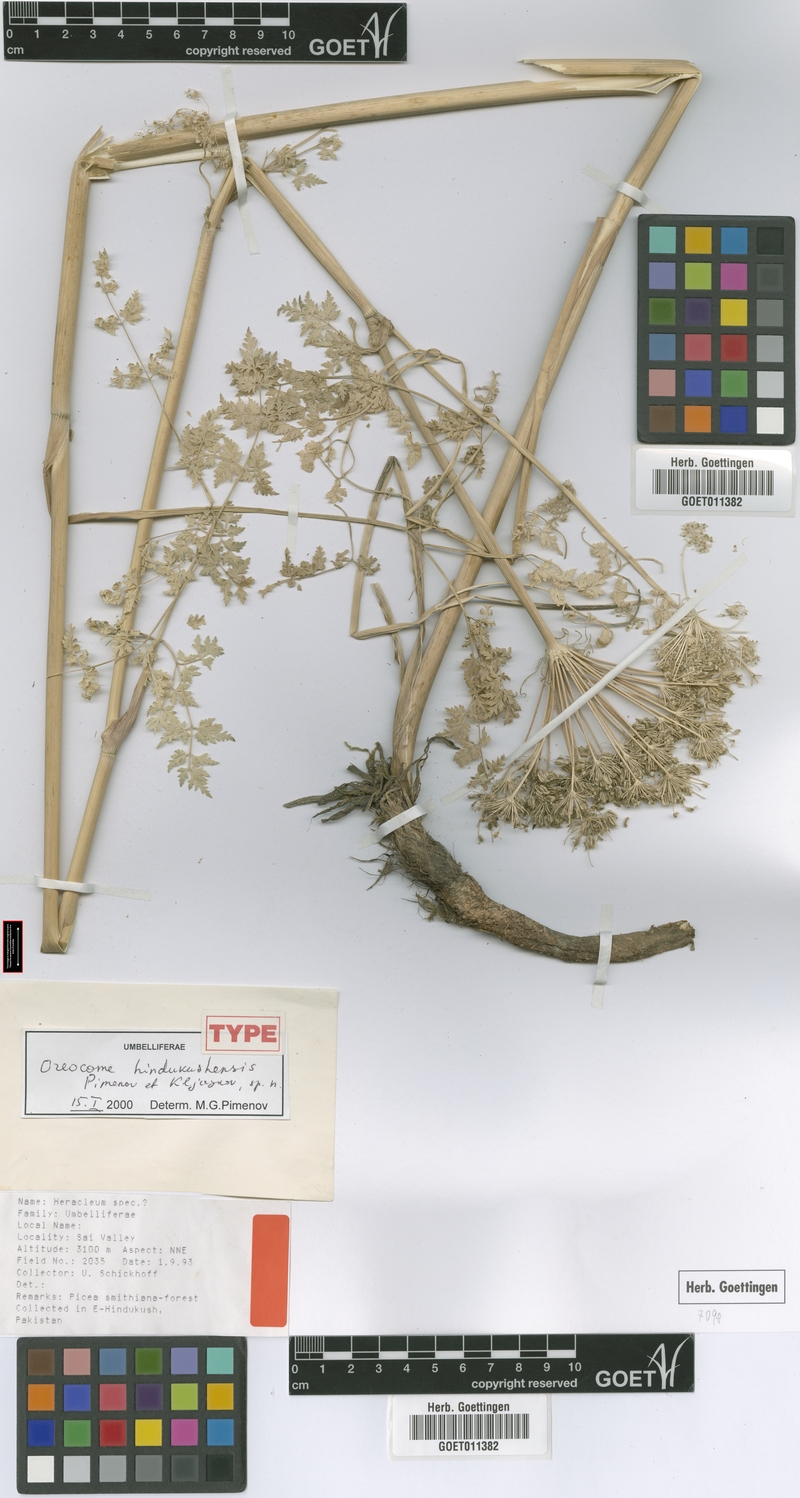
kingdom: Plantae
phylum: Tracheophyta
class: Magnoliopsida
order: Apiales
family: Apiaceae
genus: Oreocome
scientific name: Oreocome hindukushensis
